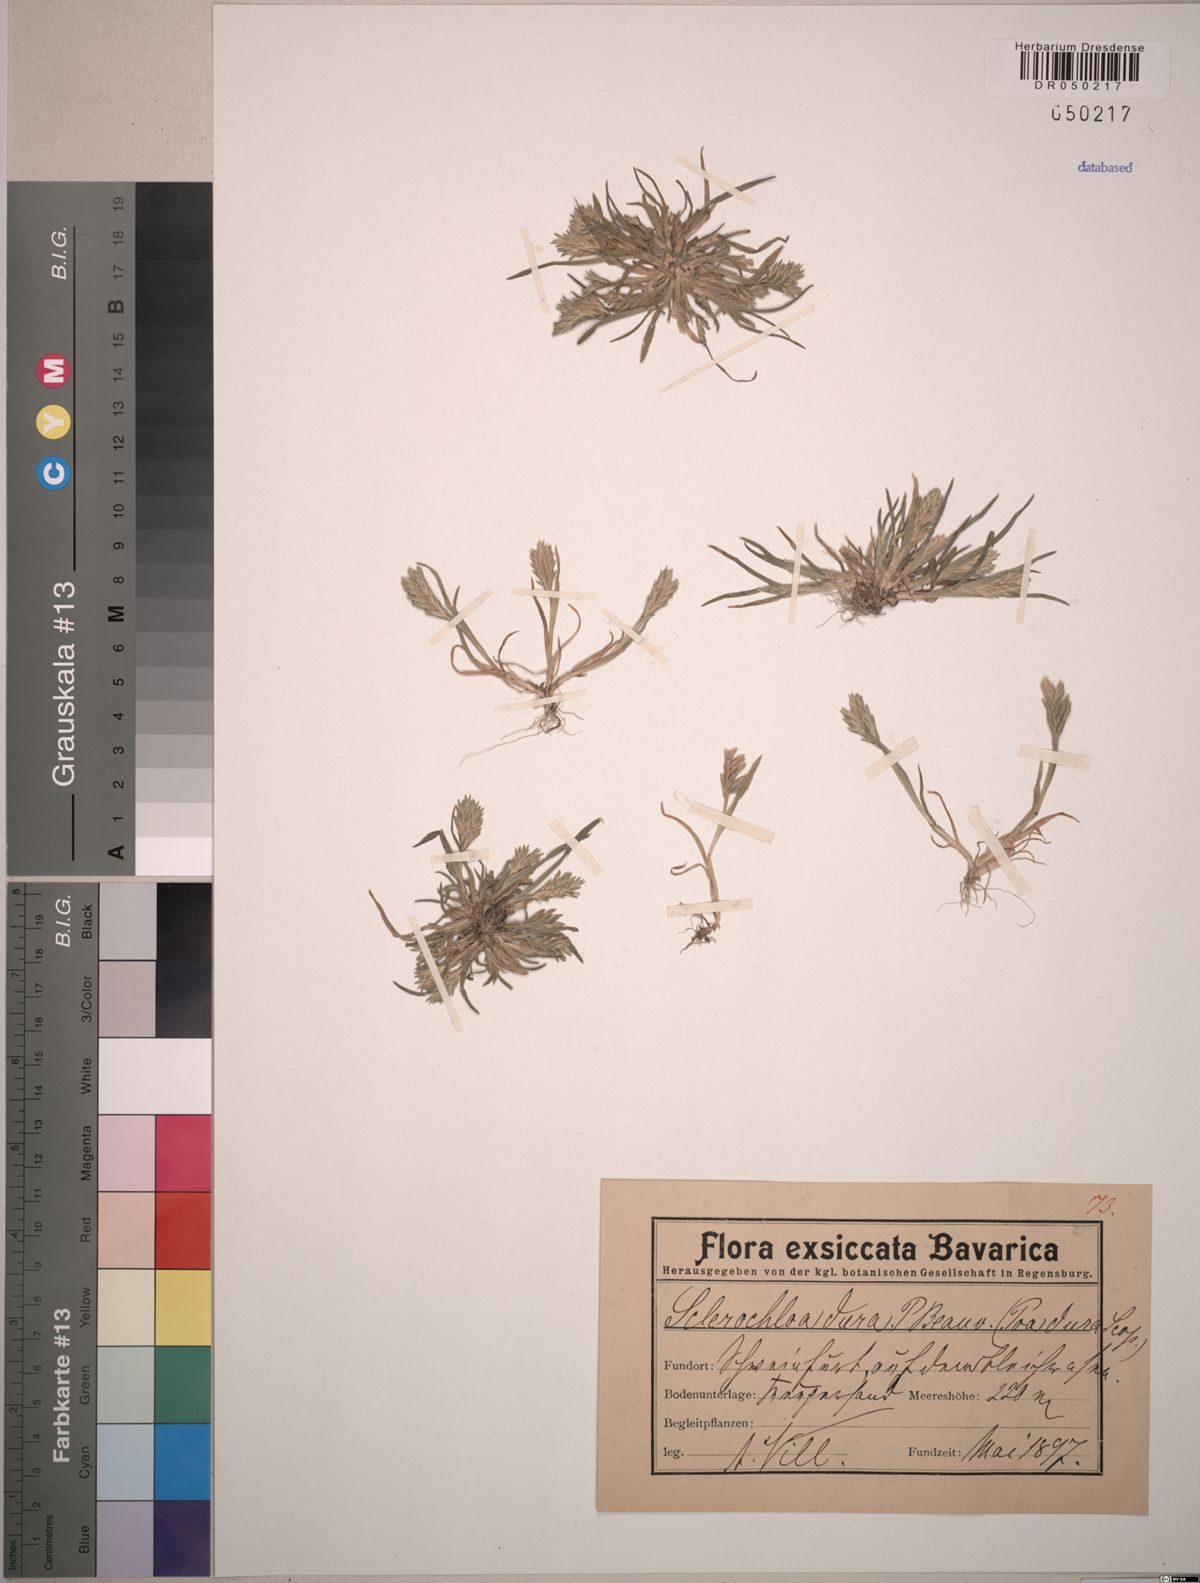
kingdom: Plantae
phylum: Tracheophyta
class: Liliopsida
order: Poales
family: Poaceae
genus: Sclerochloa
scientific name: Sclerochloa dura
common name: Common hardgrass
